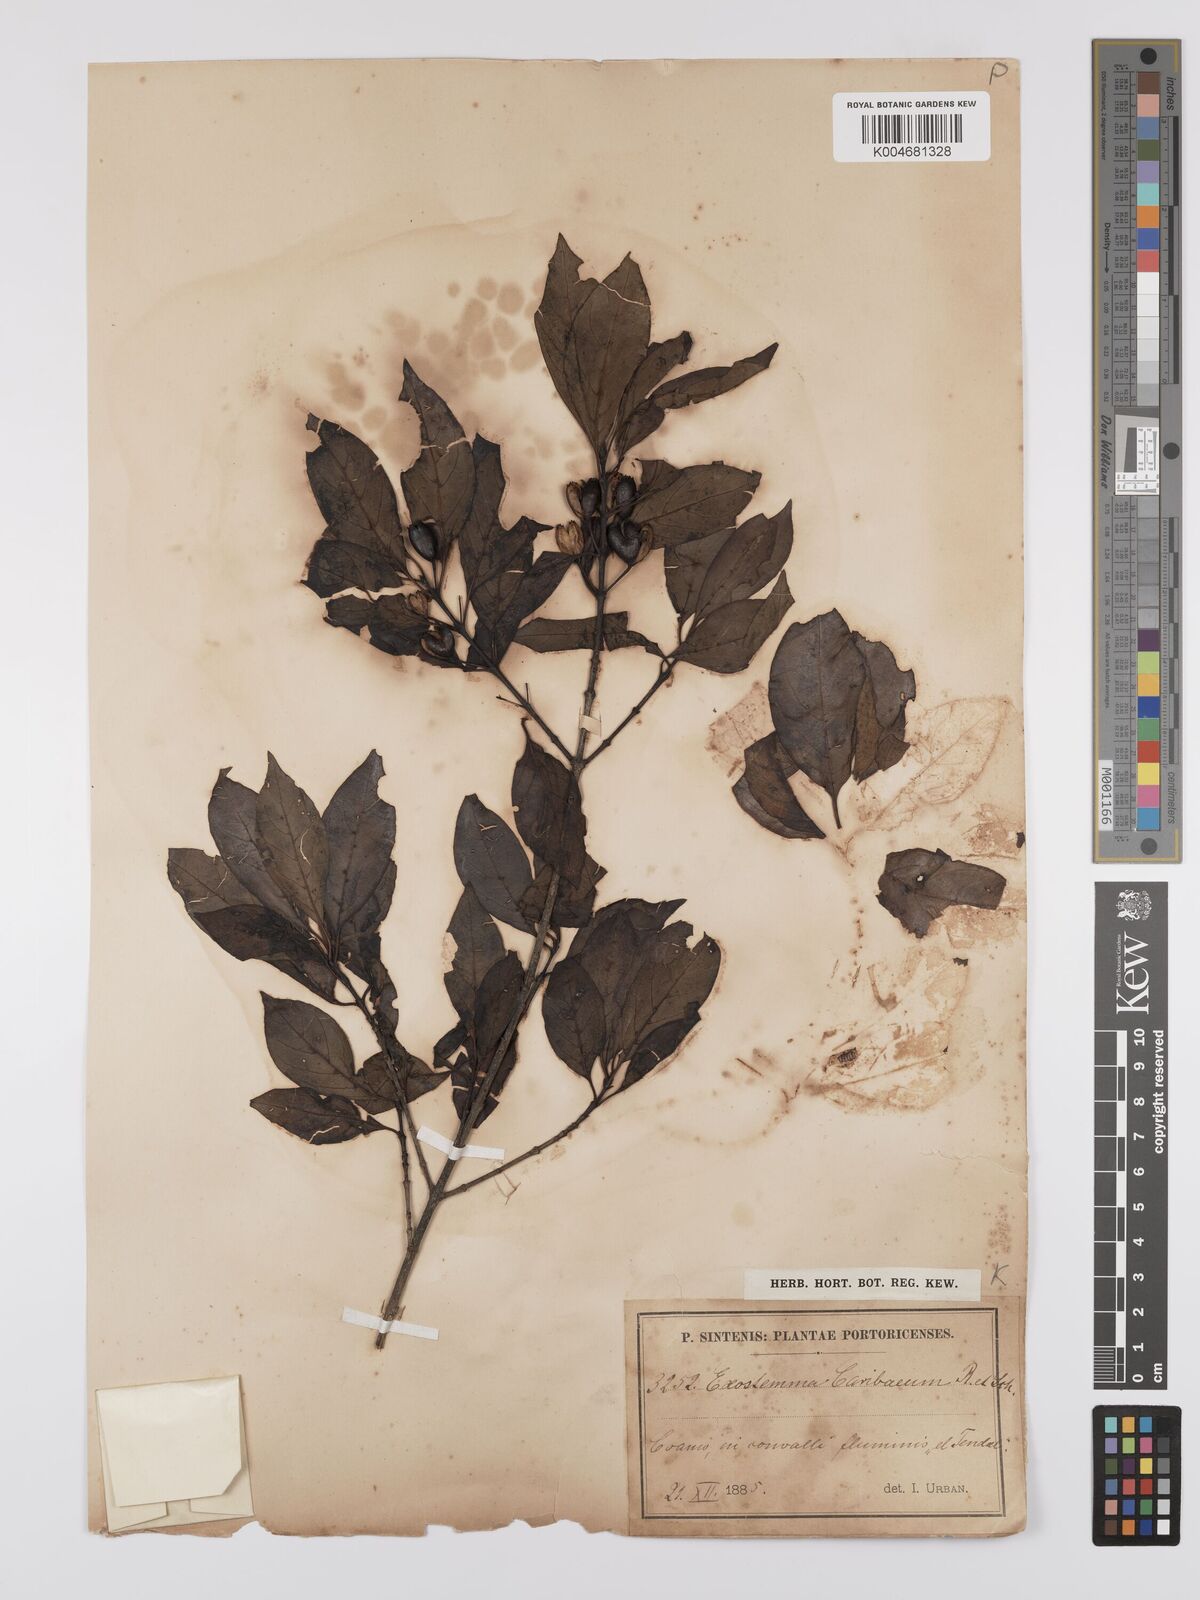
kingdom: Plantae
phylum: Tracheophyta
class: Magnoliopsida
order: Gentianales
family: Rubiaceae
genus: Exostema
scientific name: Exostema caribaeum
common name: Princewood
